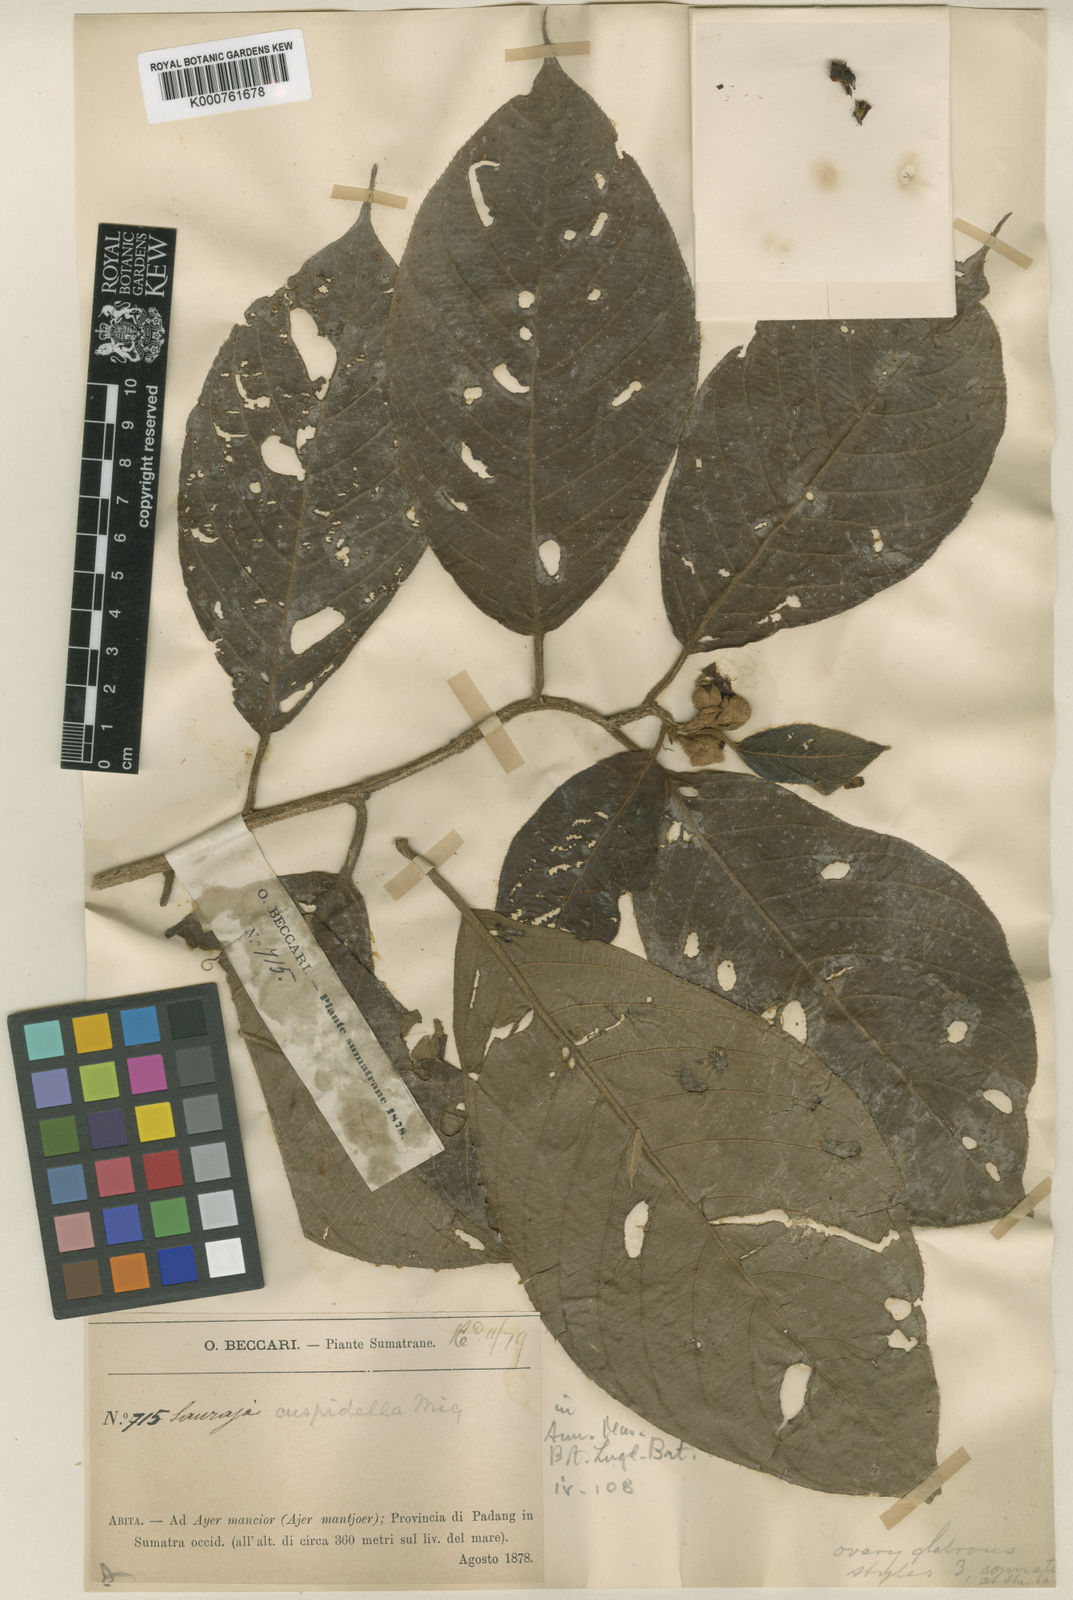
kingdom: Plantae
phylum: Tracheophyta
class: Magnoliopsida
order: Ericales
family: Actinidiaceae
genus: Saurauia
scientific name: Saurauia cuspidella
